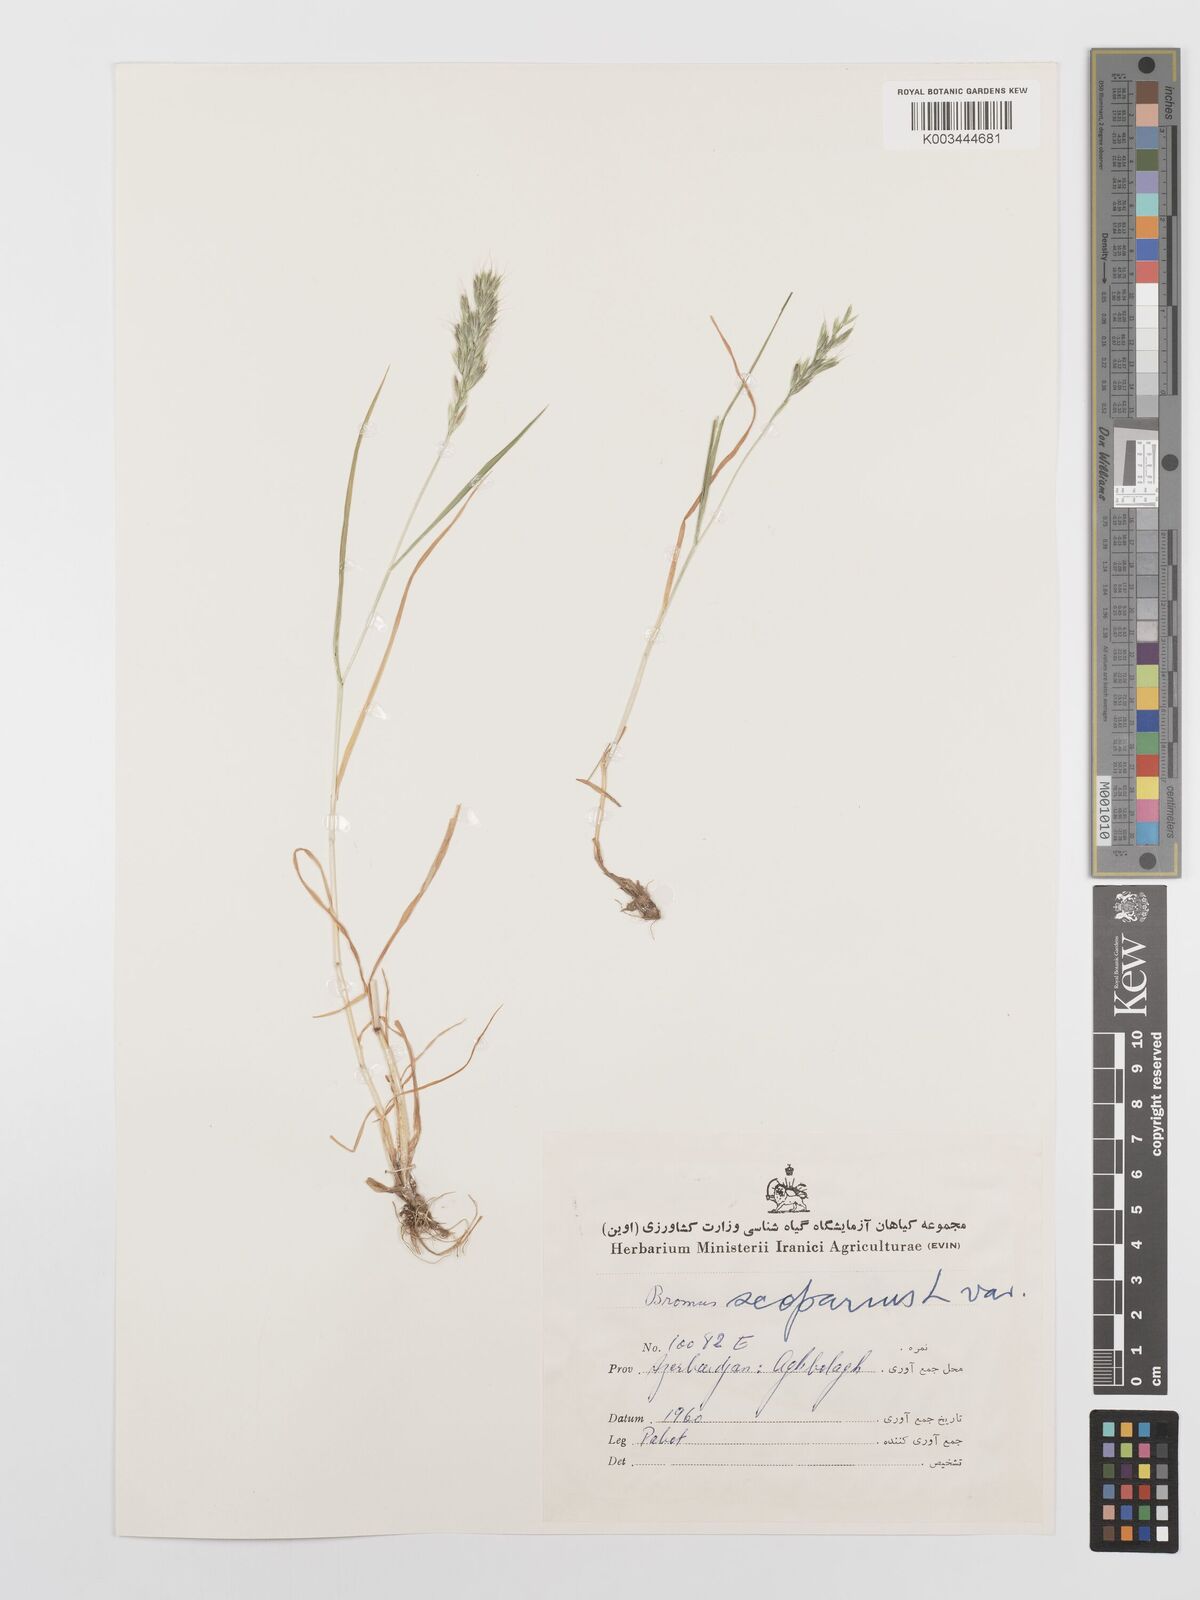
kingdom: Plantae
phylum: Tracheophyta
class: Liliopsida
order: Poales
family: Poaceae
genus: Bromus
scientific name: Bromus scoparius
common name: Broom brome
